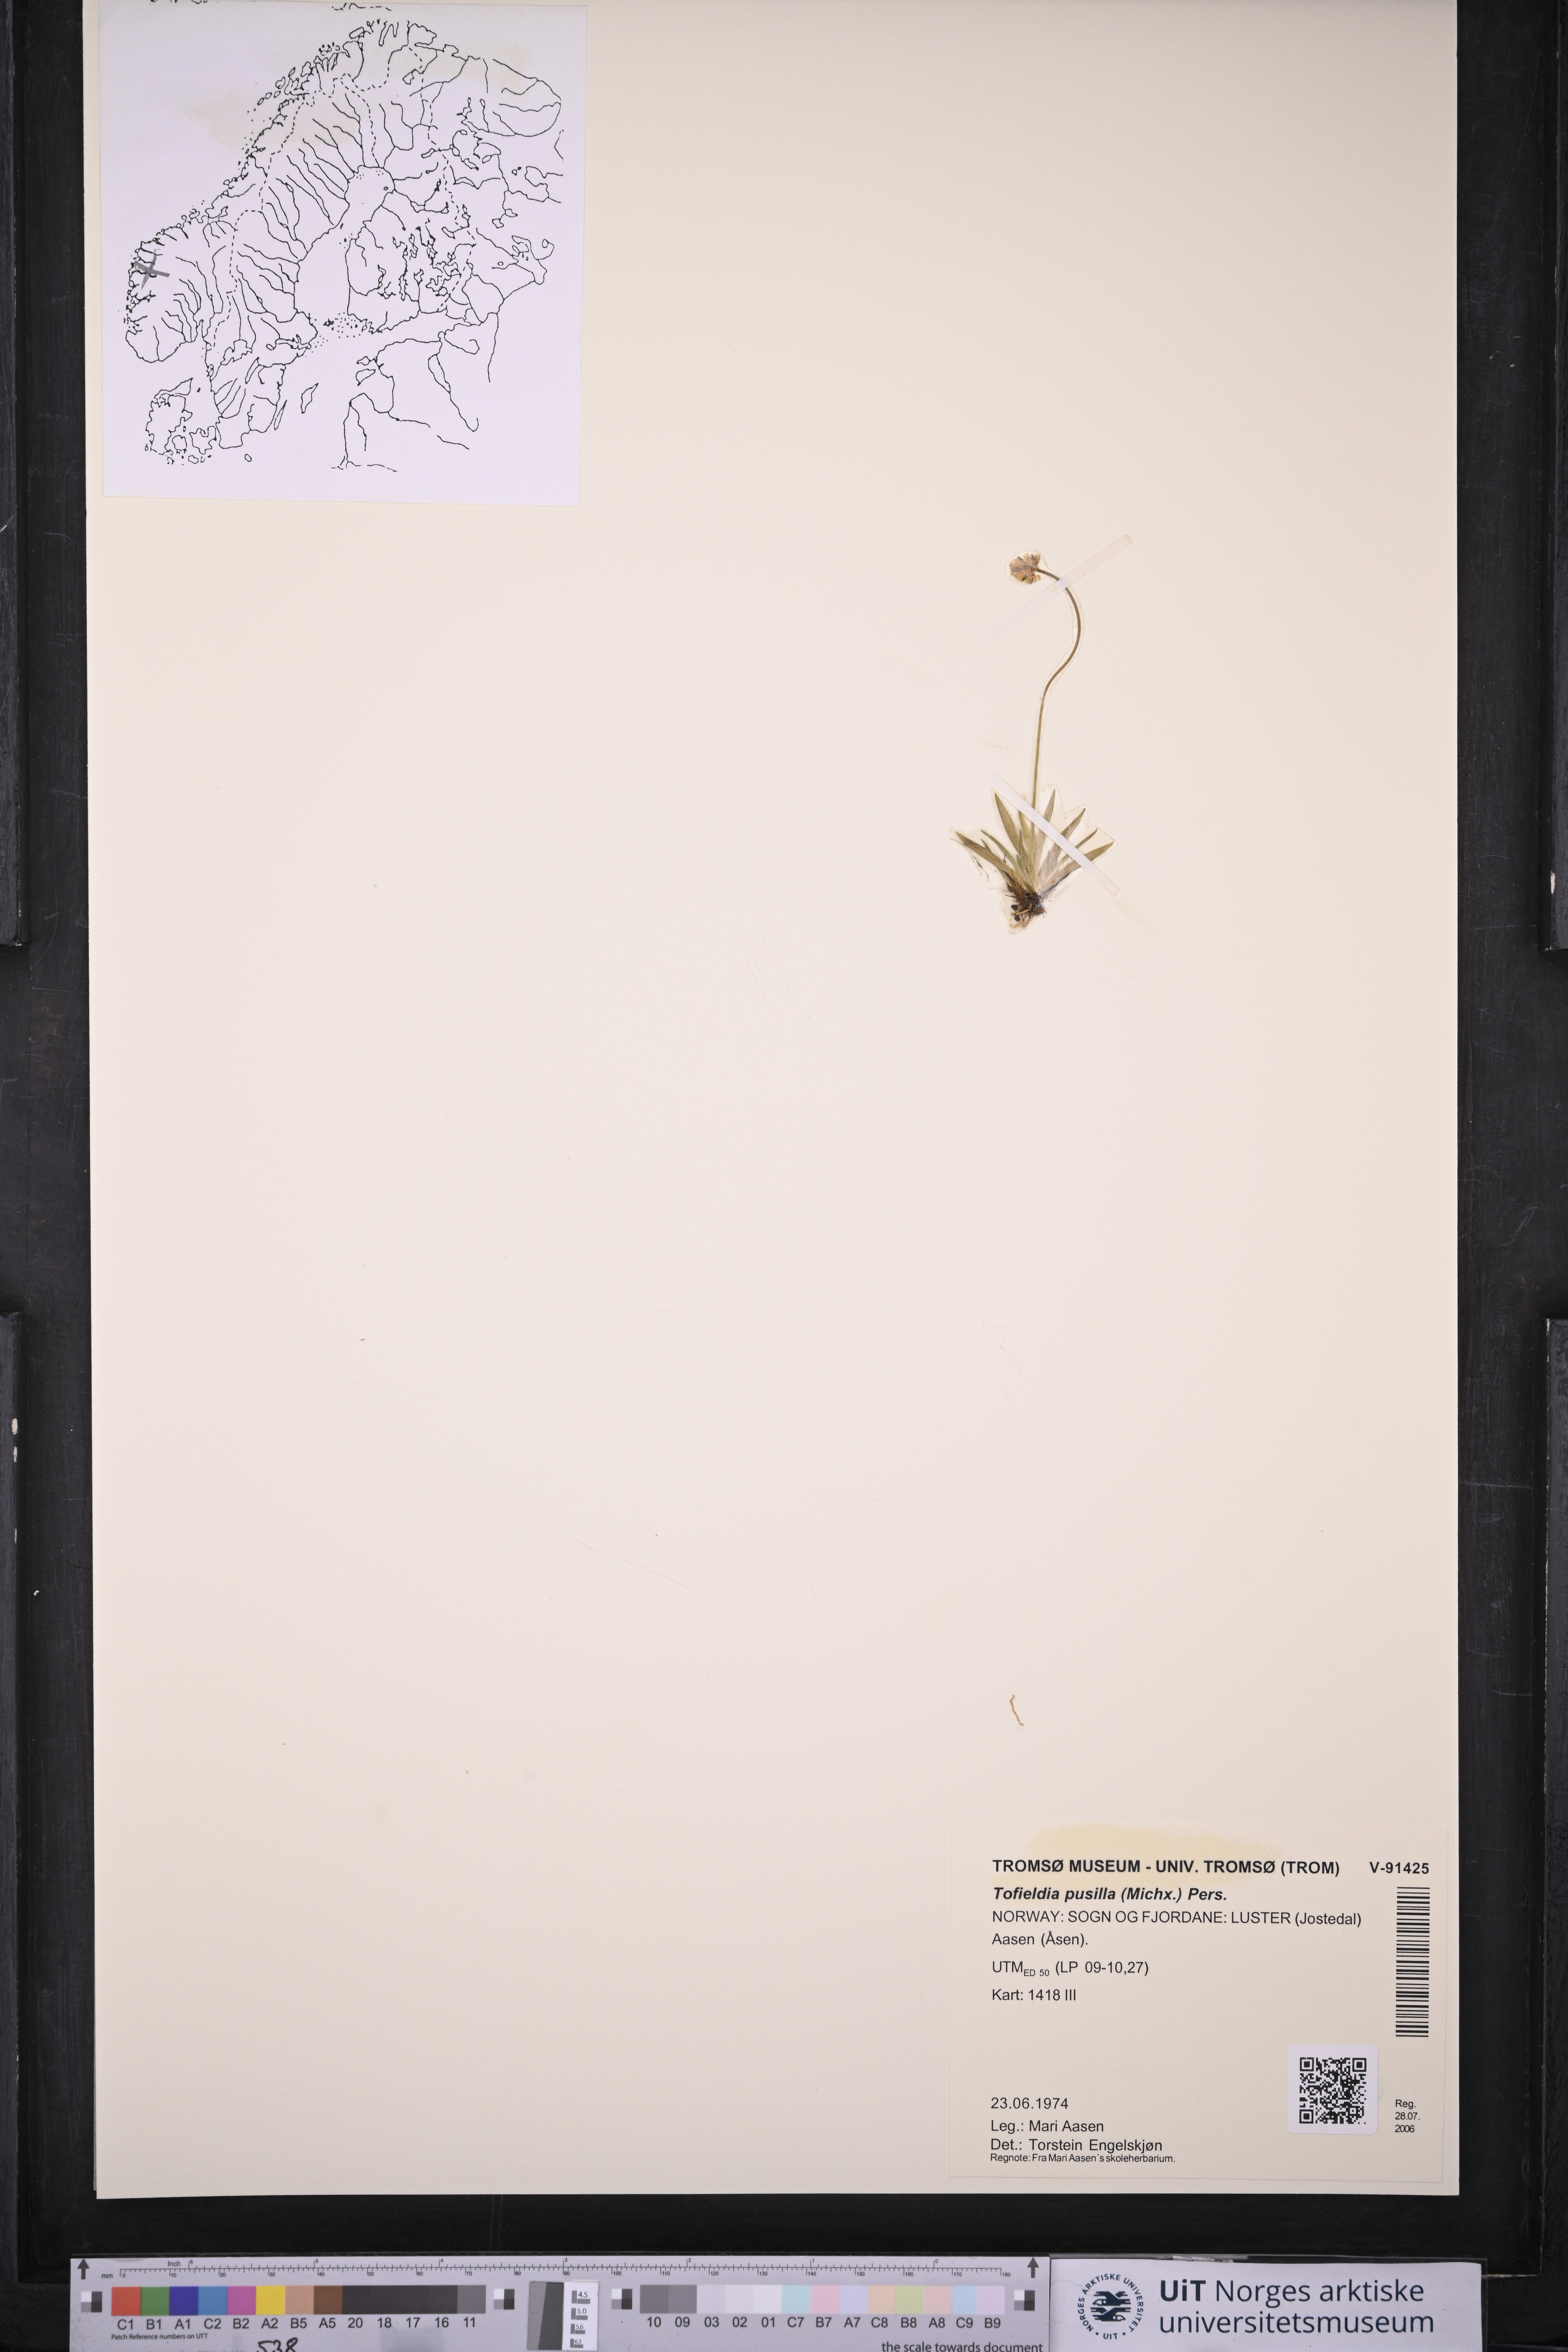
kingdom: Plantae
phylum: Tracheophyta
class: Liliopsida
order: Alismatales
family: Tofieldiaceae
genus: Tofieldia
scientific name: Tofieldia pusilla
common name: Scottish false asphodel
